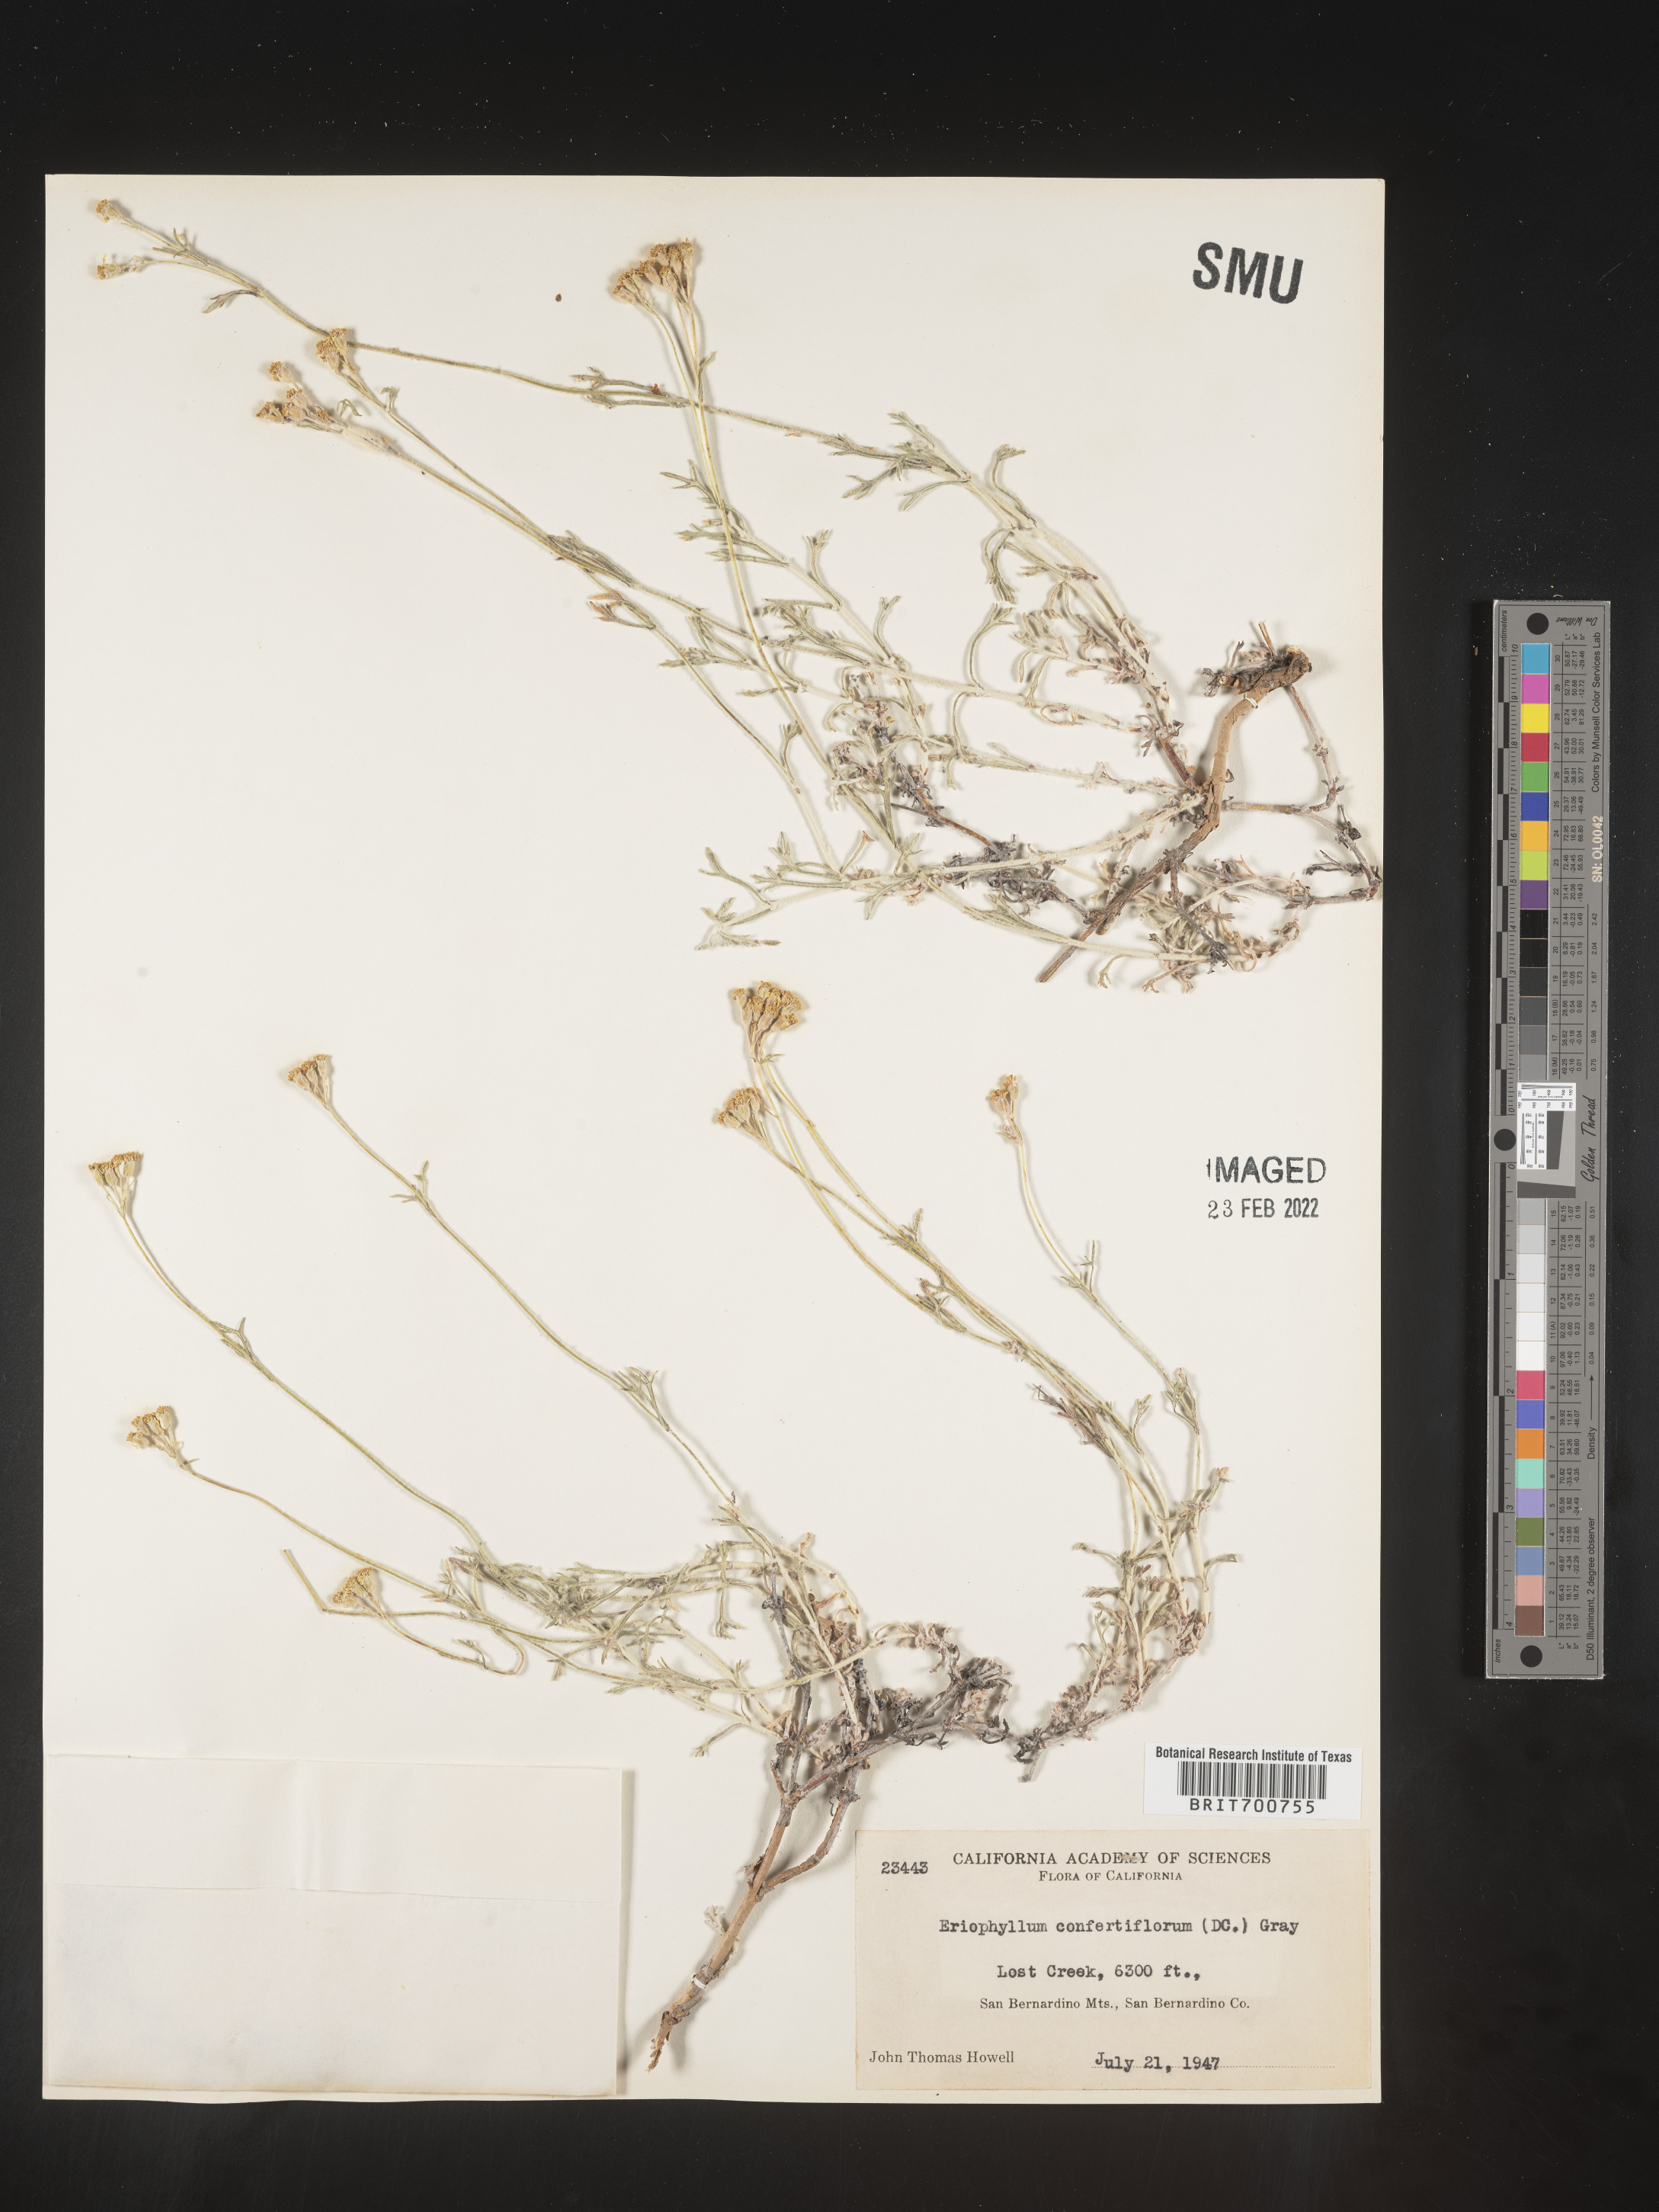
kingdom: Plantae
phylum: Tracheophyta
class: Magnoliopsida
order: Asterales
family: Asteraceae
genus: Eriophyllum
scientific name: Eriophyllum confertiflorum
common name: Golden-yarrow
